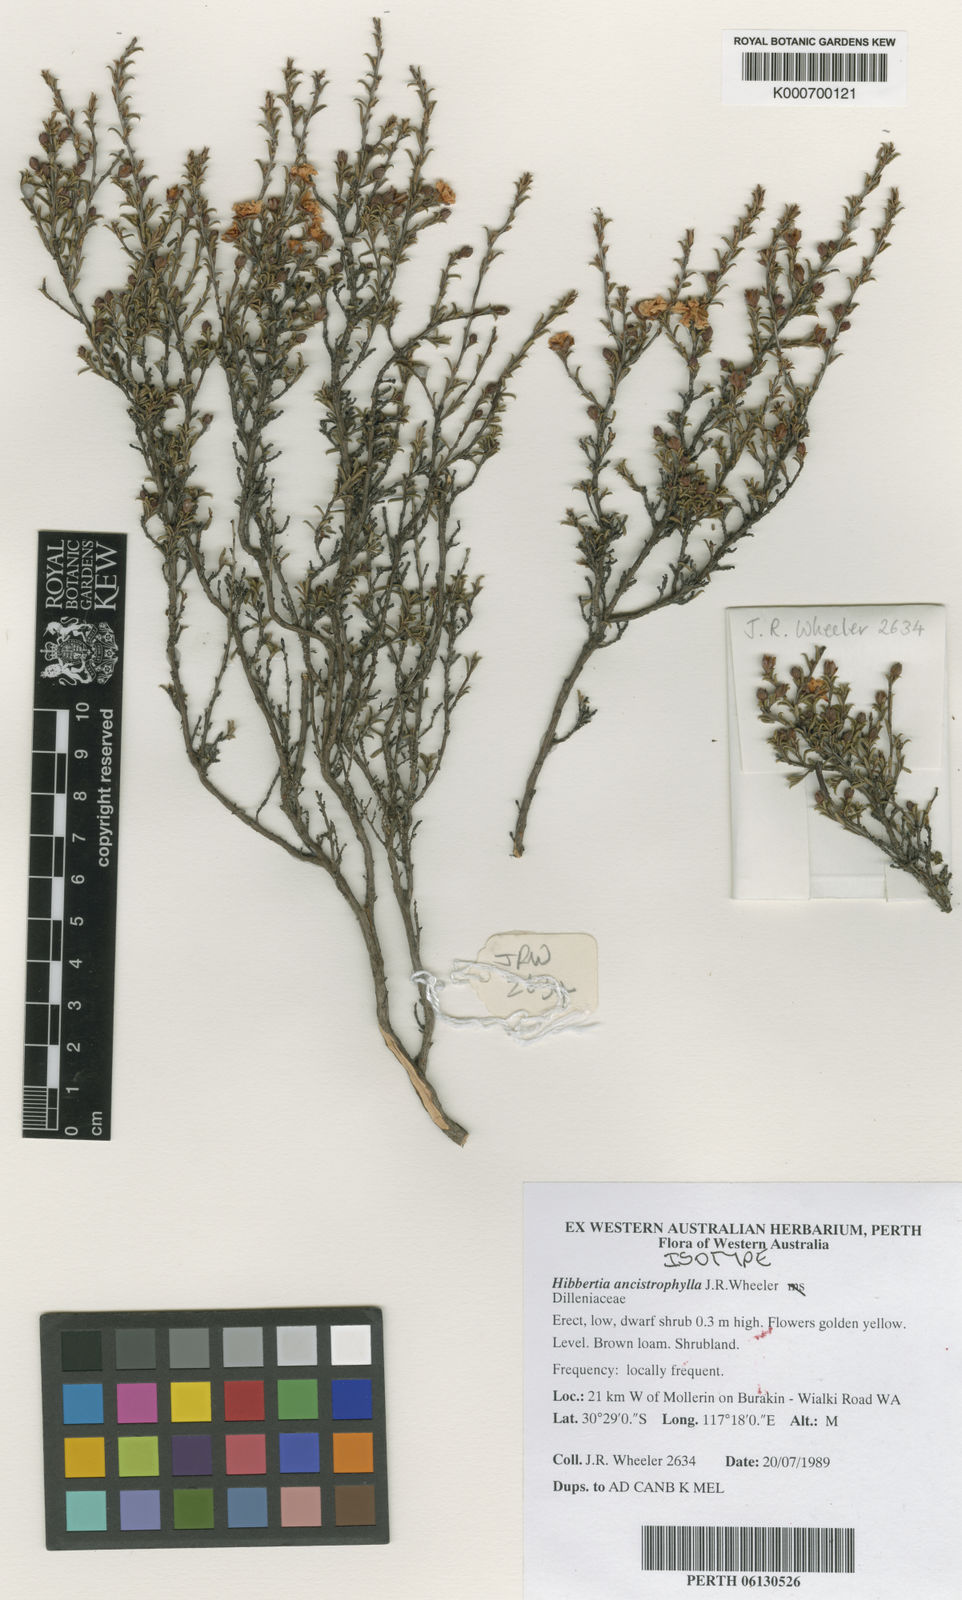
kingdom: Plantae
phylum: Tracheophyta
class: Magnoliopsida
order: Dilleniales
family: Dilleniaceae
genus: Hibbertia
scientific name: Hibbertia ancistrophylla
